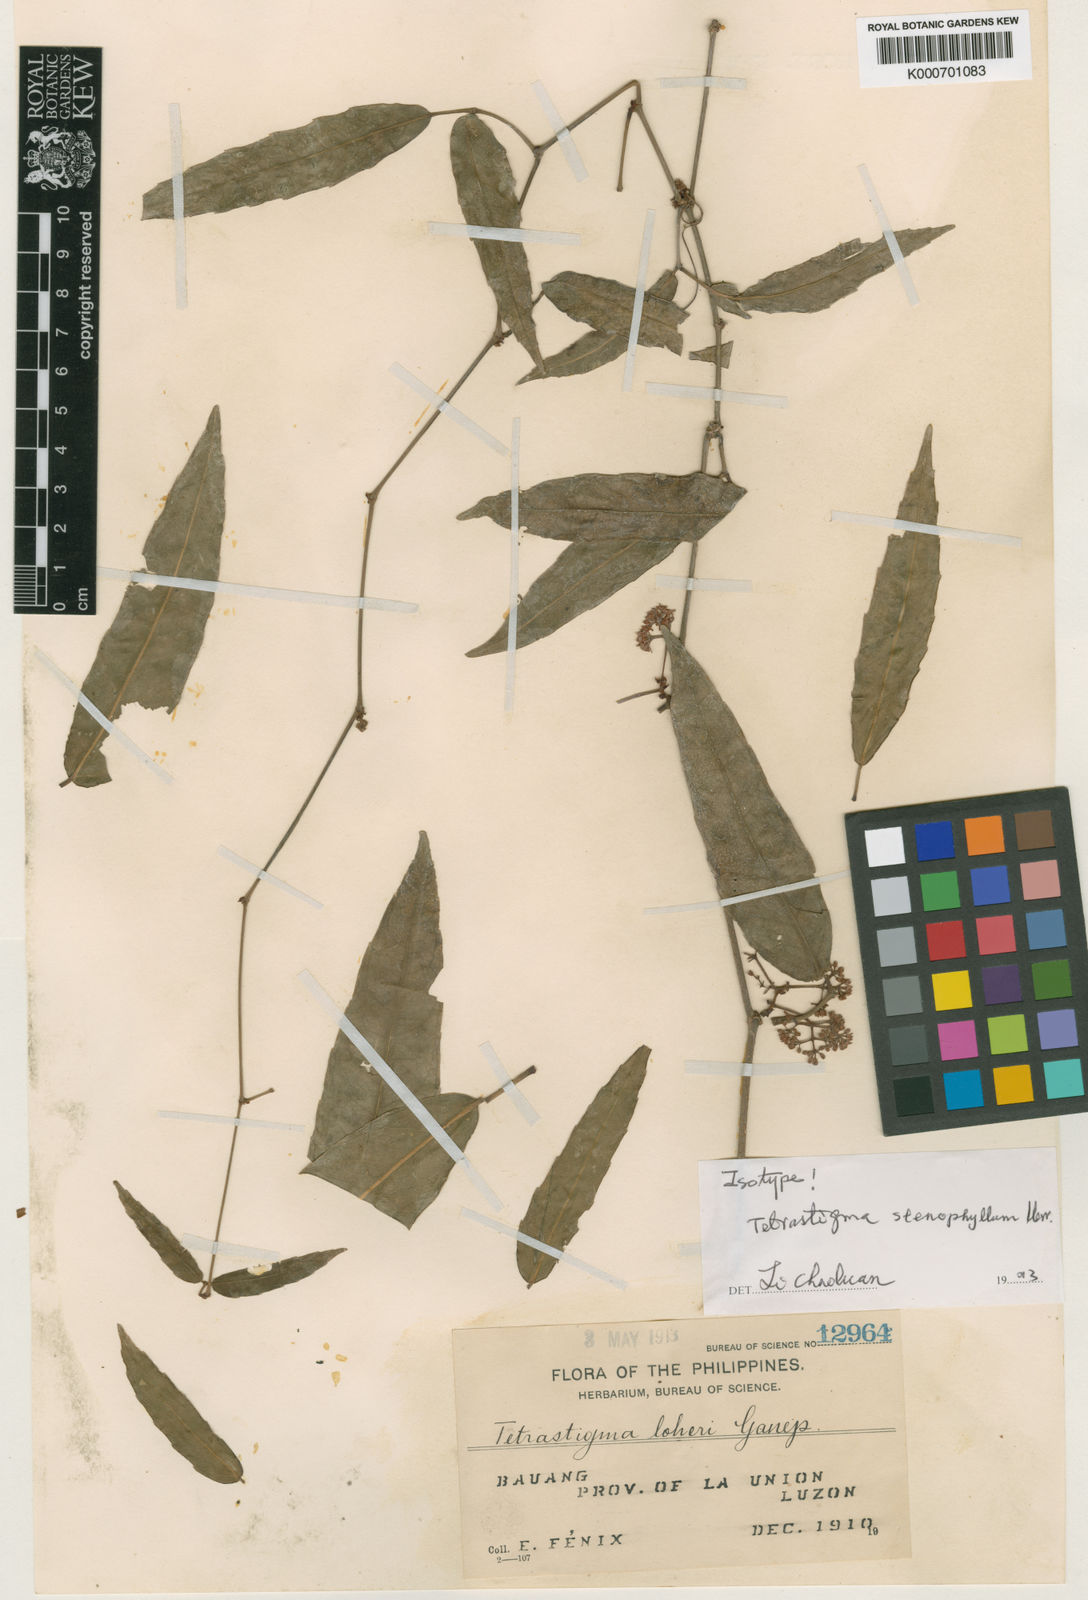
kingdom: Plantae
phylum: Tracheophyta
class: Magnoliopsida
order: Vitales
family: Vitaceae
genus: Tetrastigma
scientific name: Tetrastigma loheri
